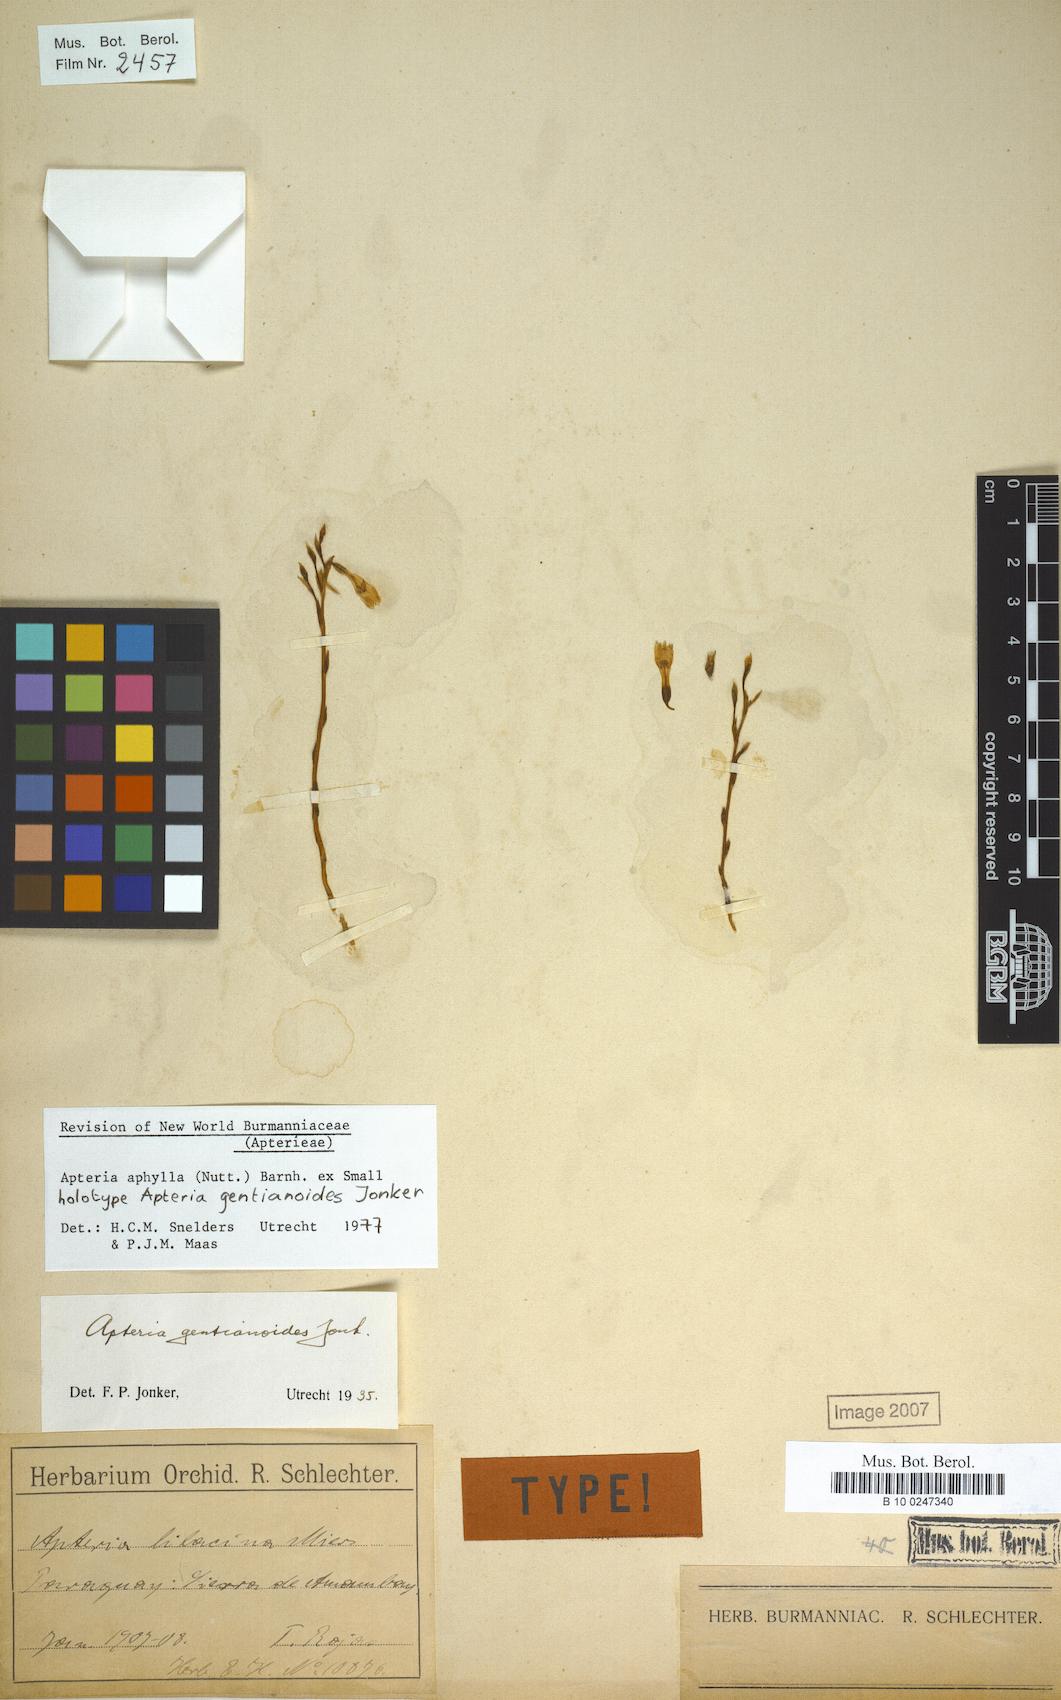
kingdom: Plantae
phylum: Tracheophyta
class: Liliopsida
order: Dioscoreales
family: Burmanniaceae
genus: Apteria
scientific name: Apteria aphylla
